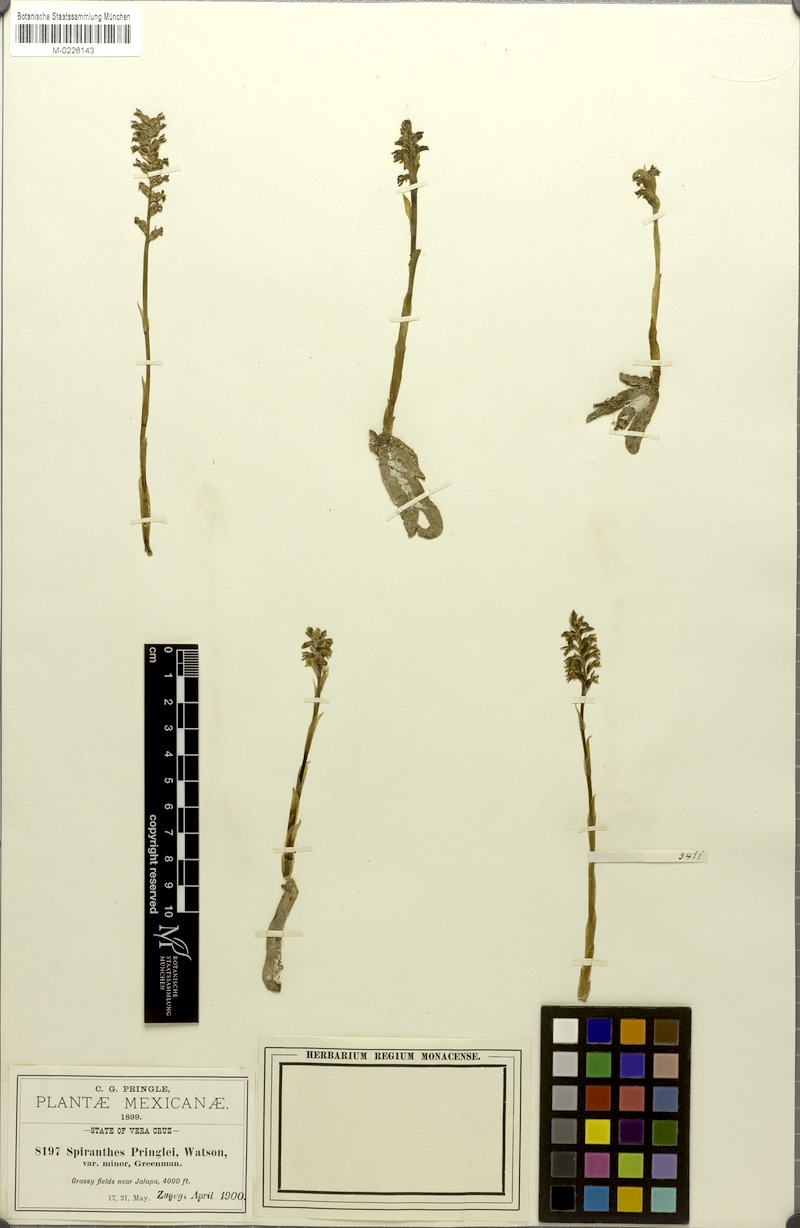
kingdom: Plantae
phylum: Tracheophyta
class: Liliopsida
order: Asparagales
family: Orchidaceae
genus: Cyclopogon
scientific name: Cyclopogon saccatus
